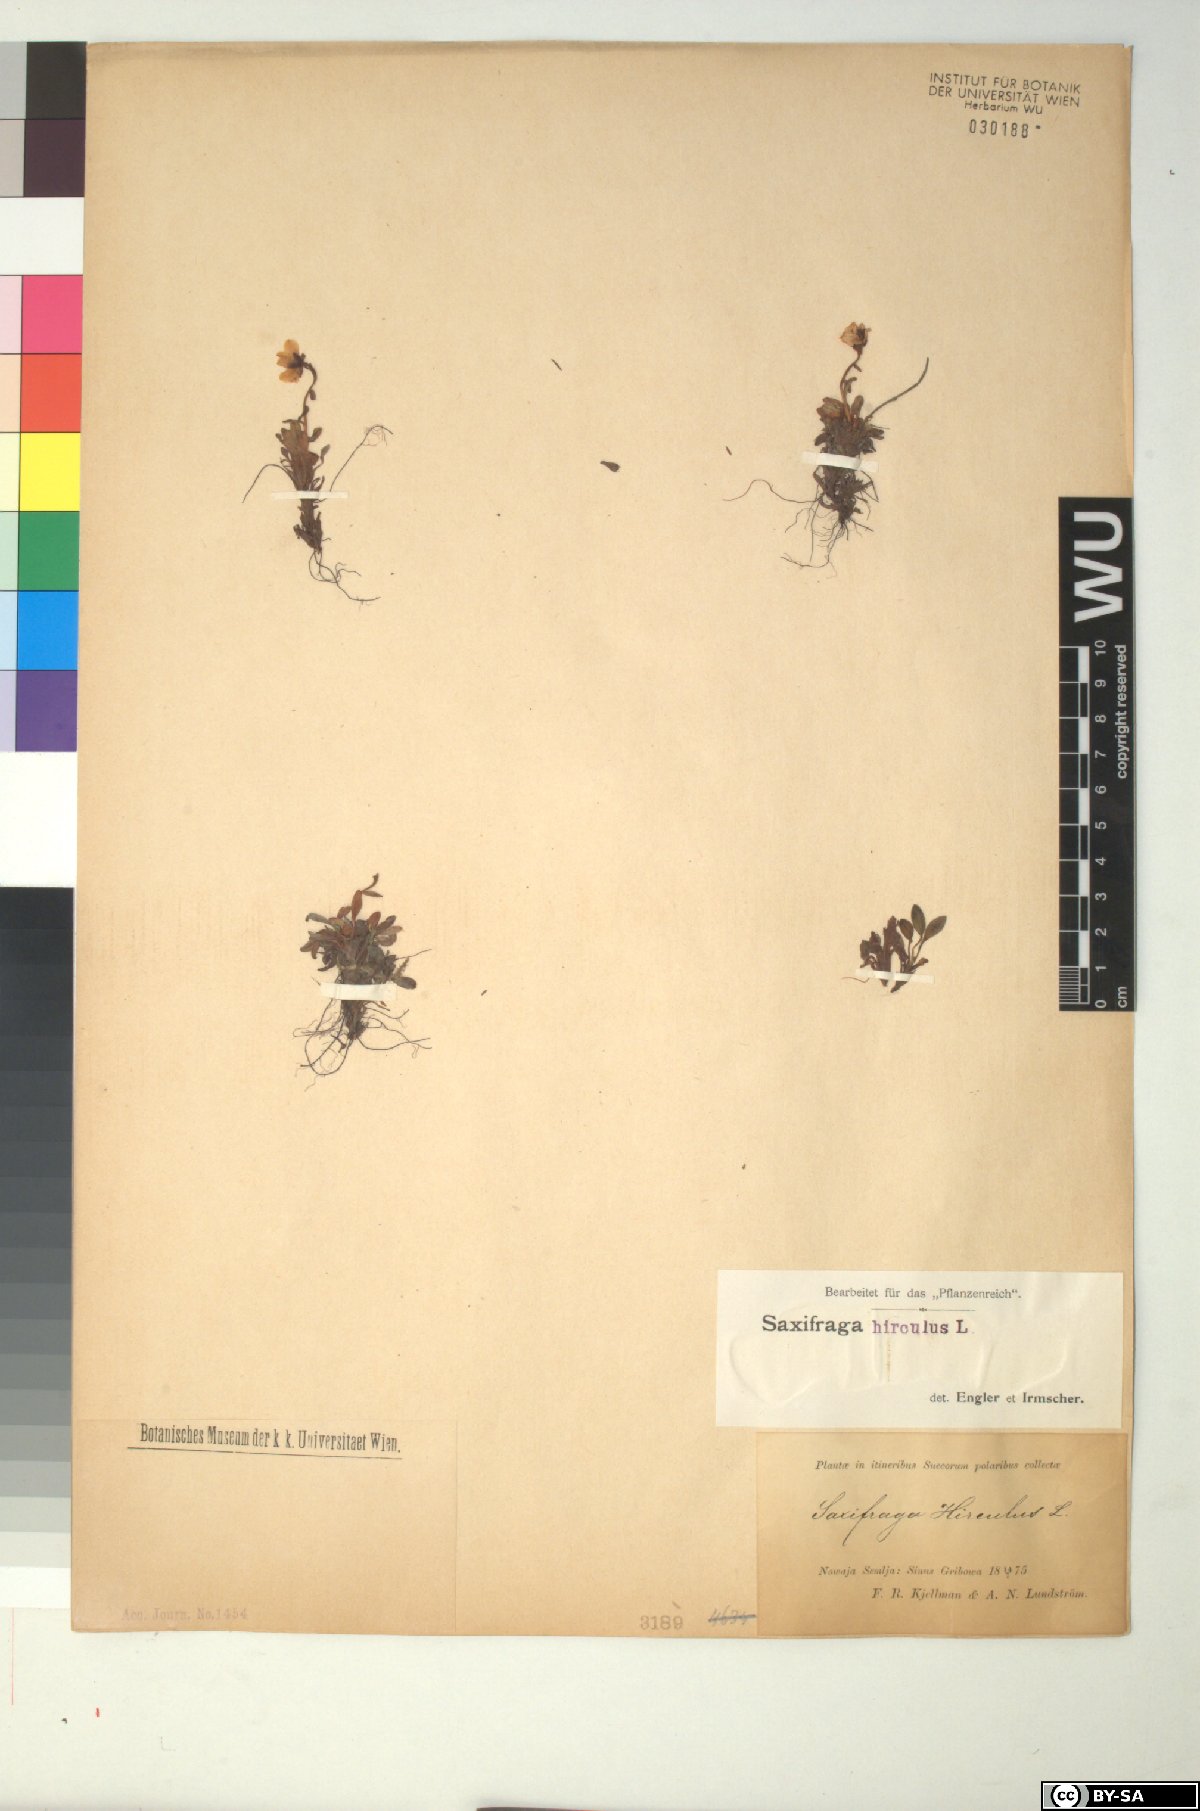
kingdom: Plantae
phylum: Tracheophyta
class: Magnoliopsida
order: Saxifragales
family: Saxifragaceae
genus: Saxifraga
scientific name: Saxifraga hirculus
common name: Yellow marsh saxifrage
